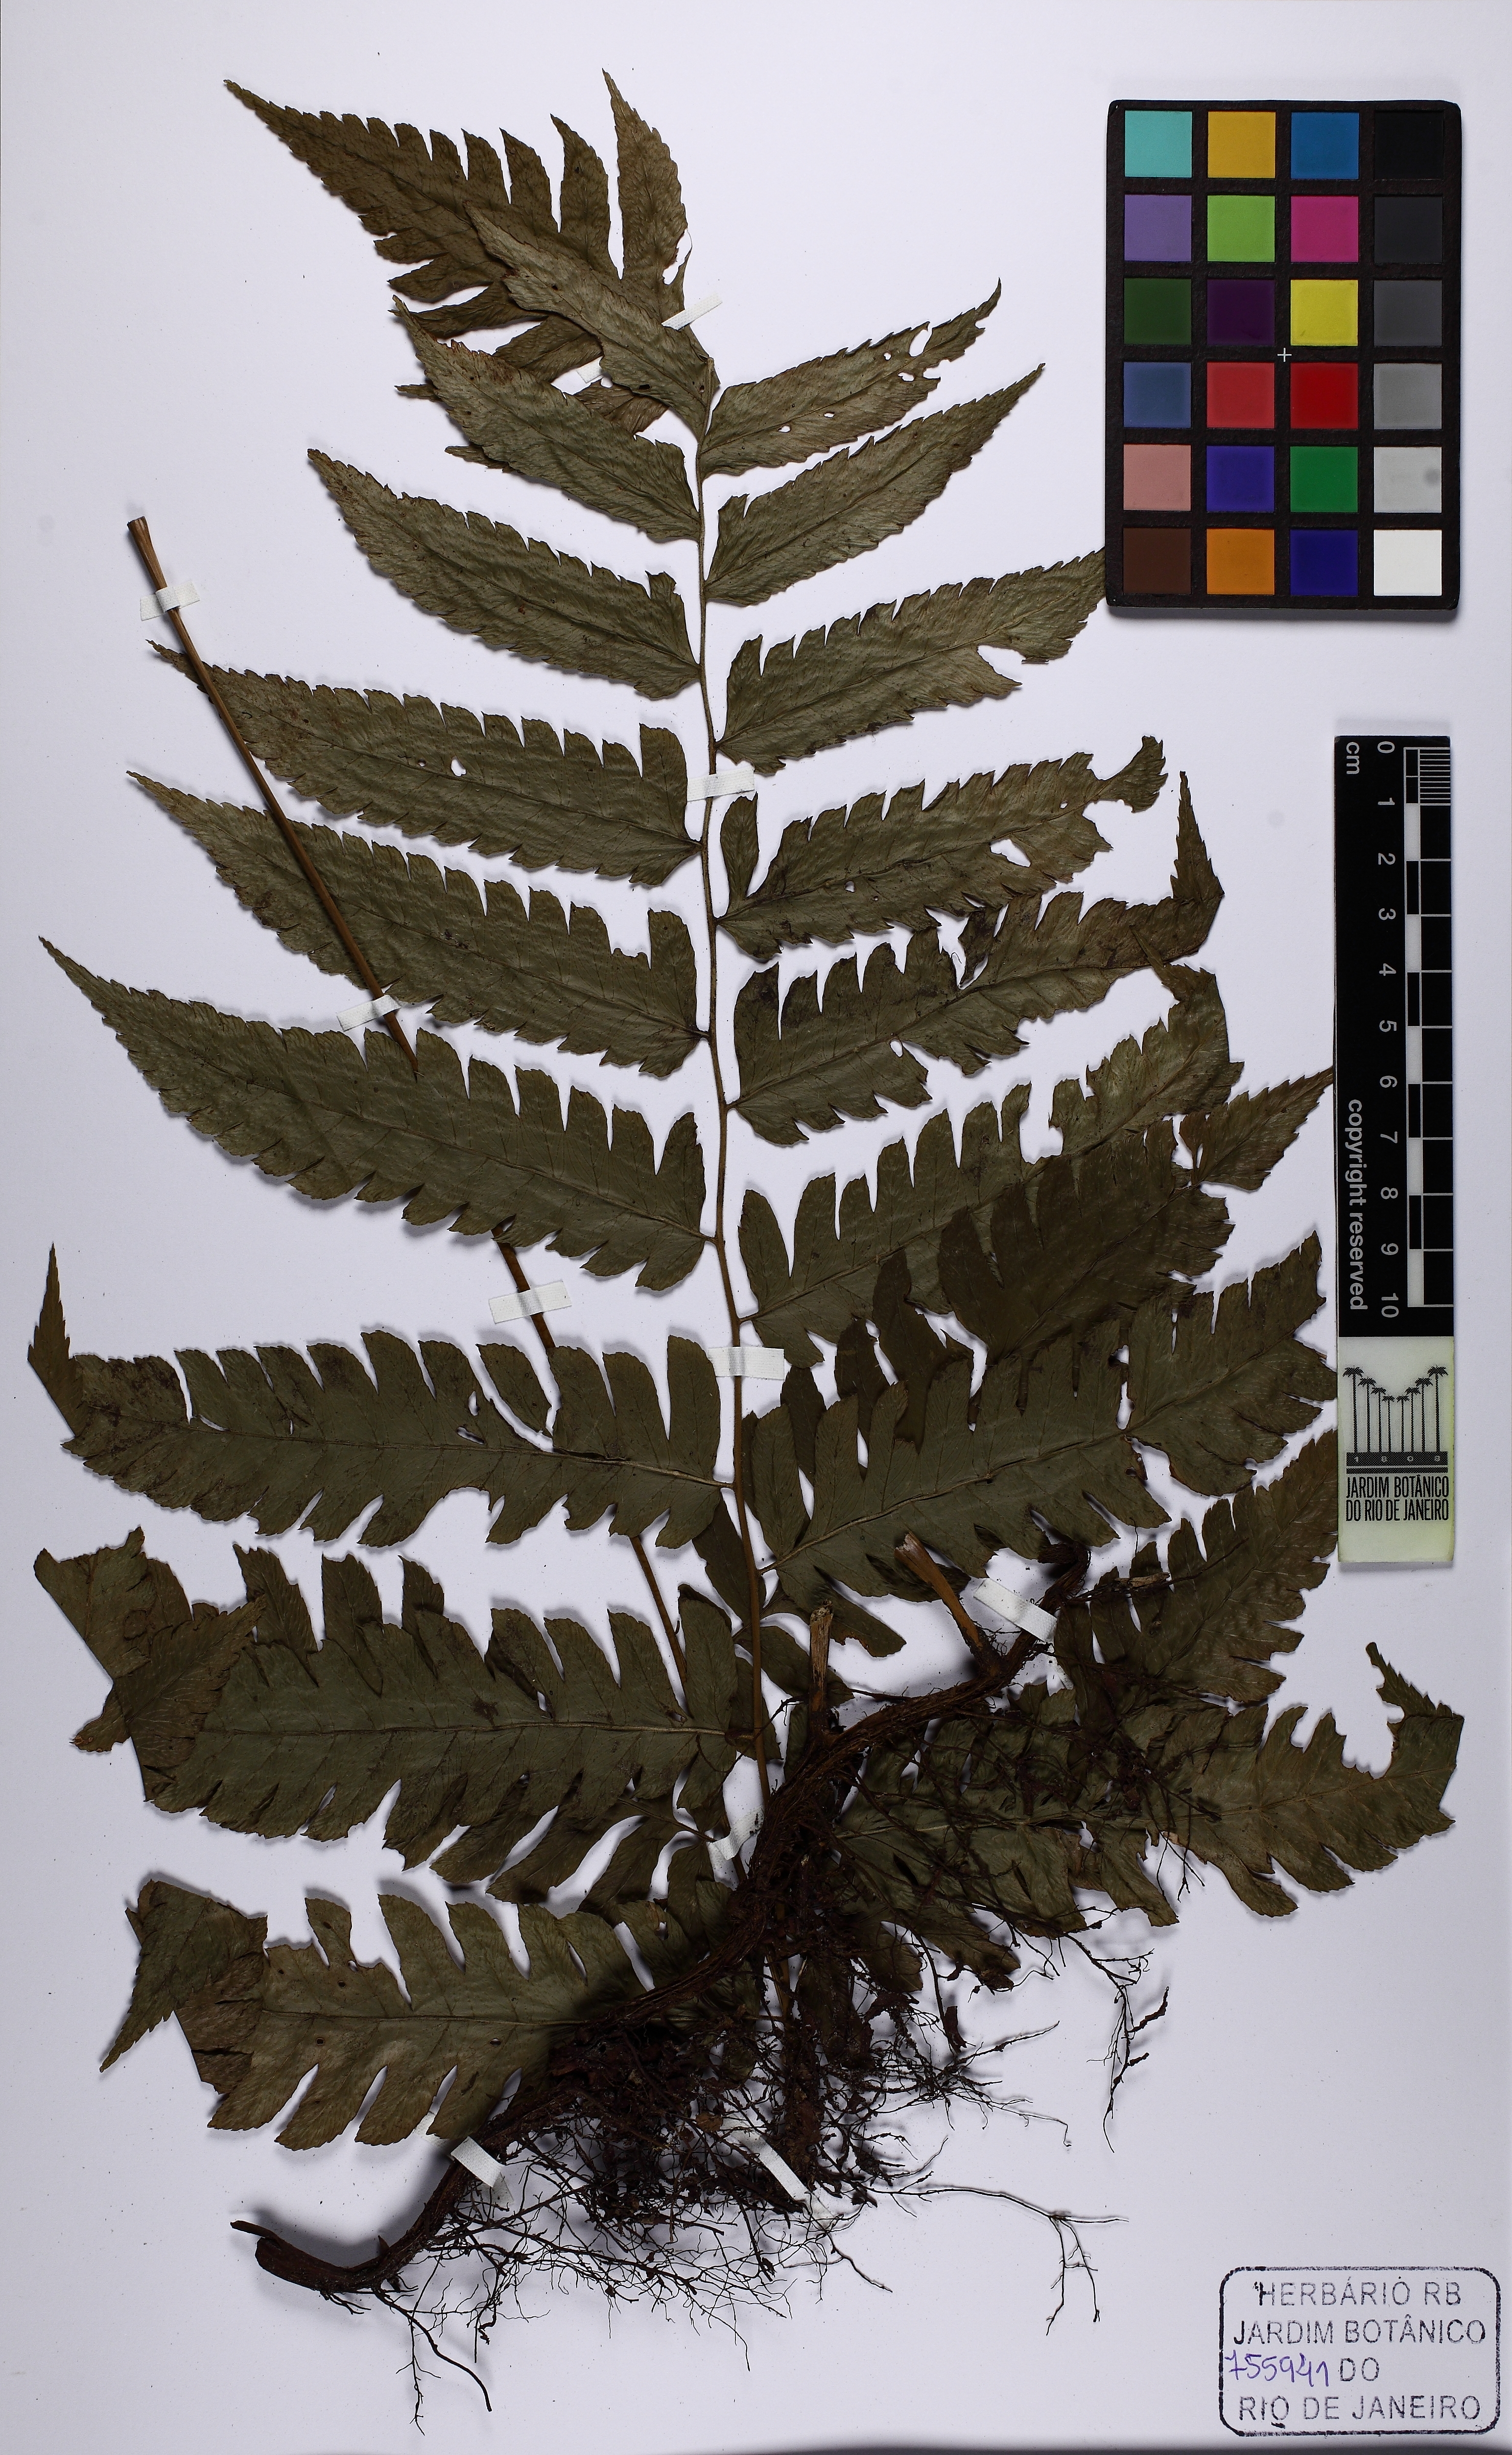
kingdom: Plantae
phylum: Tracheophyta
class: Polypodiopsida
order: Polypodiales
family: Dryopteridaceae
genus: Polybotrya
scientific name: Polybotrya caudata
